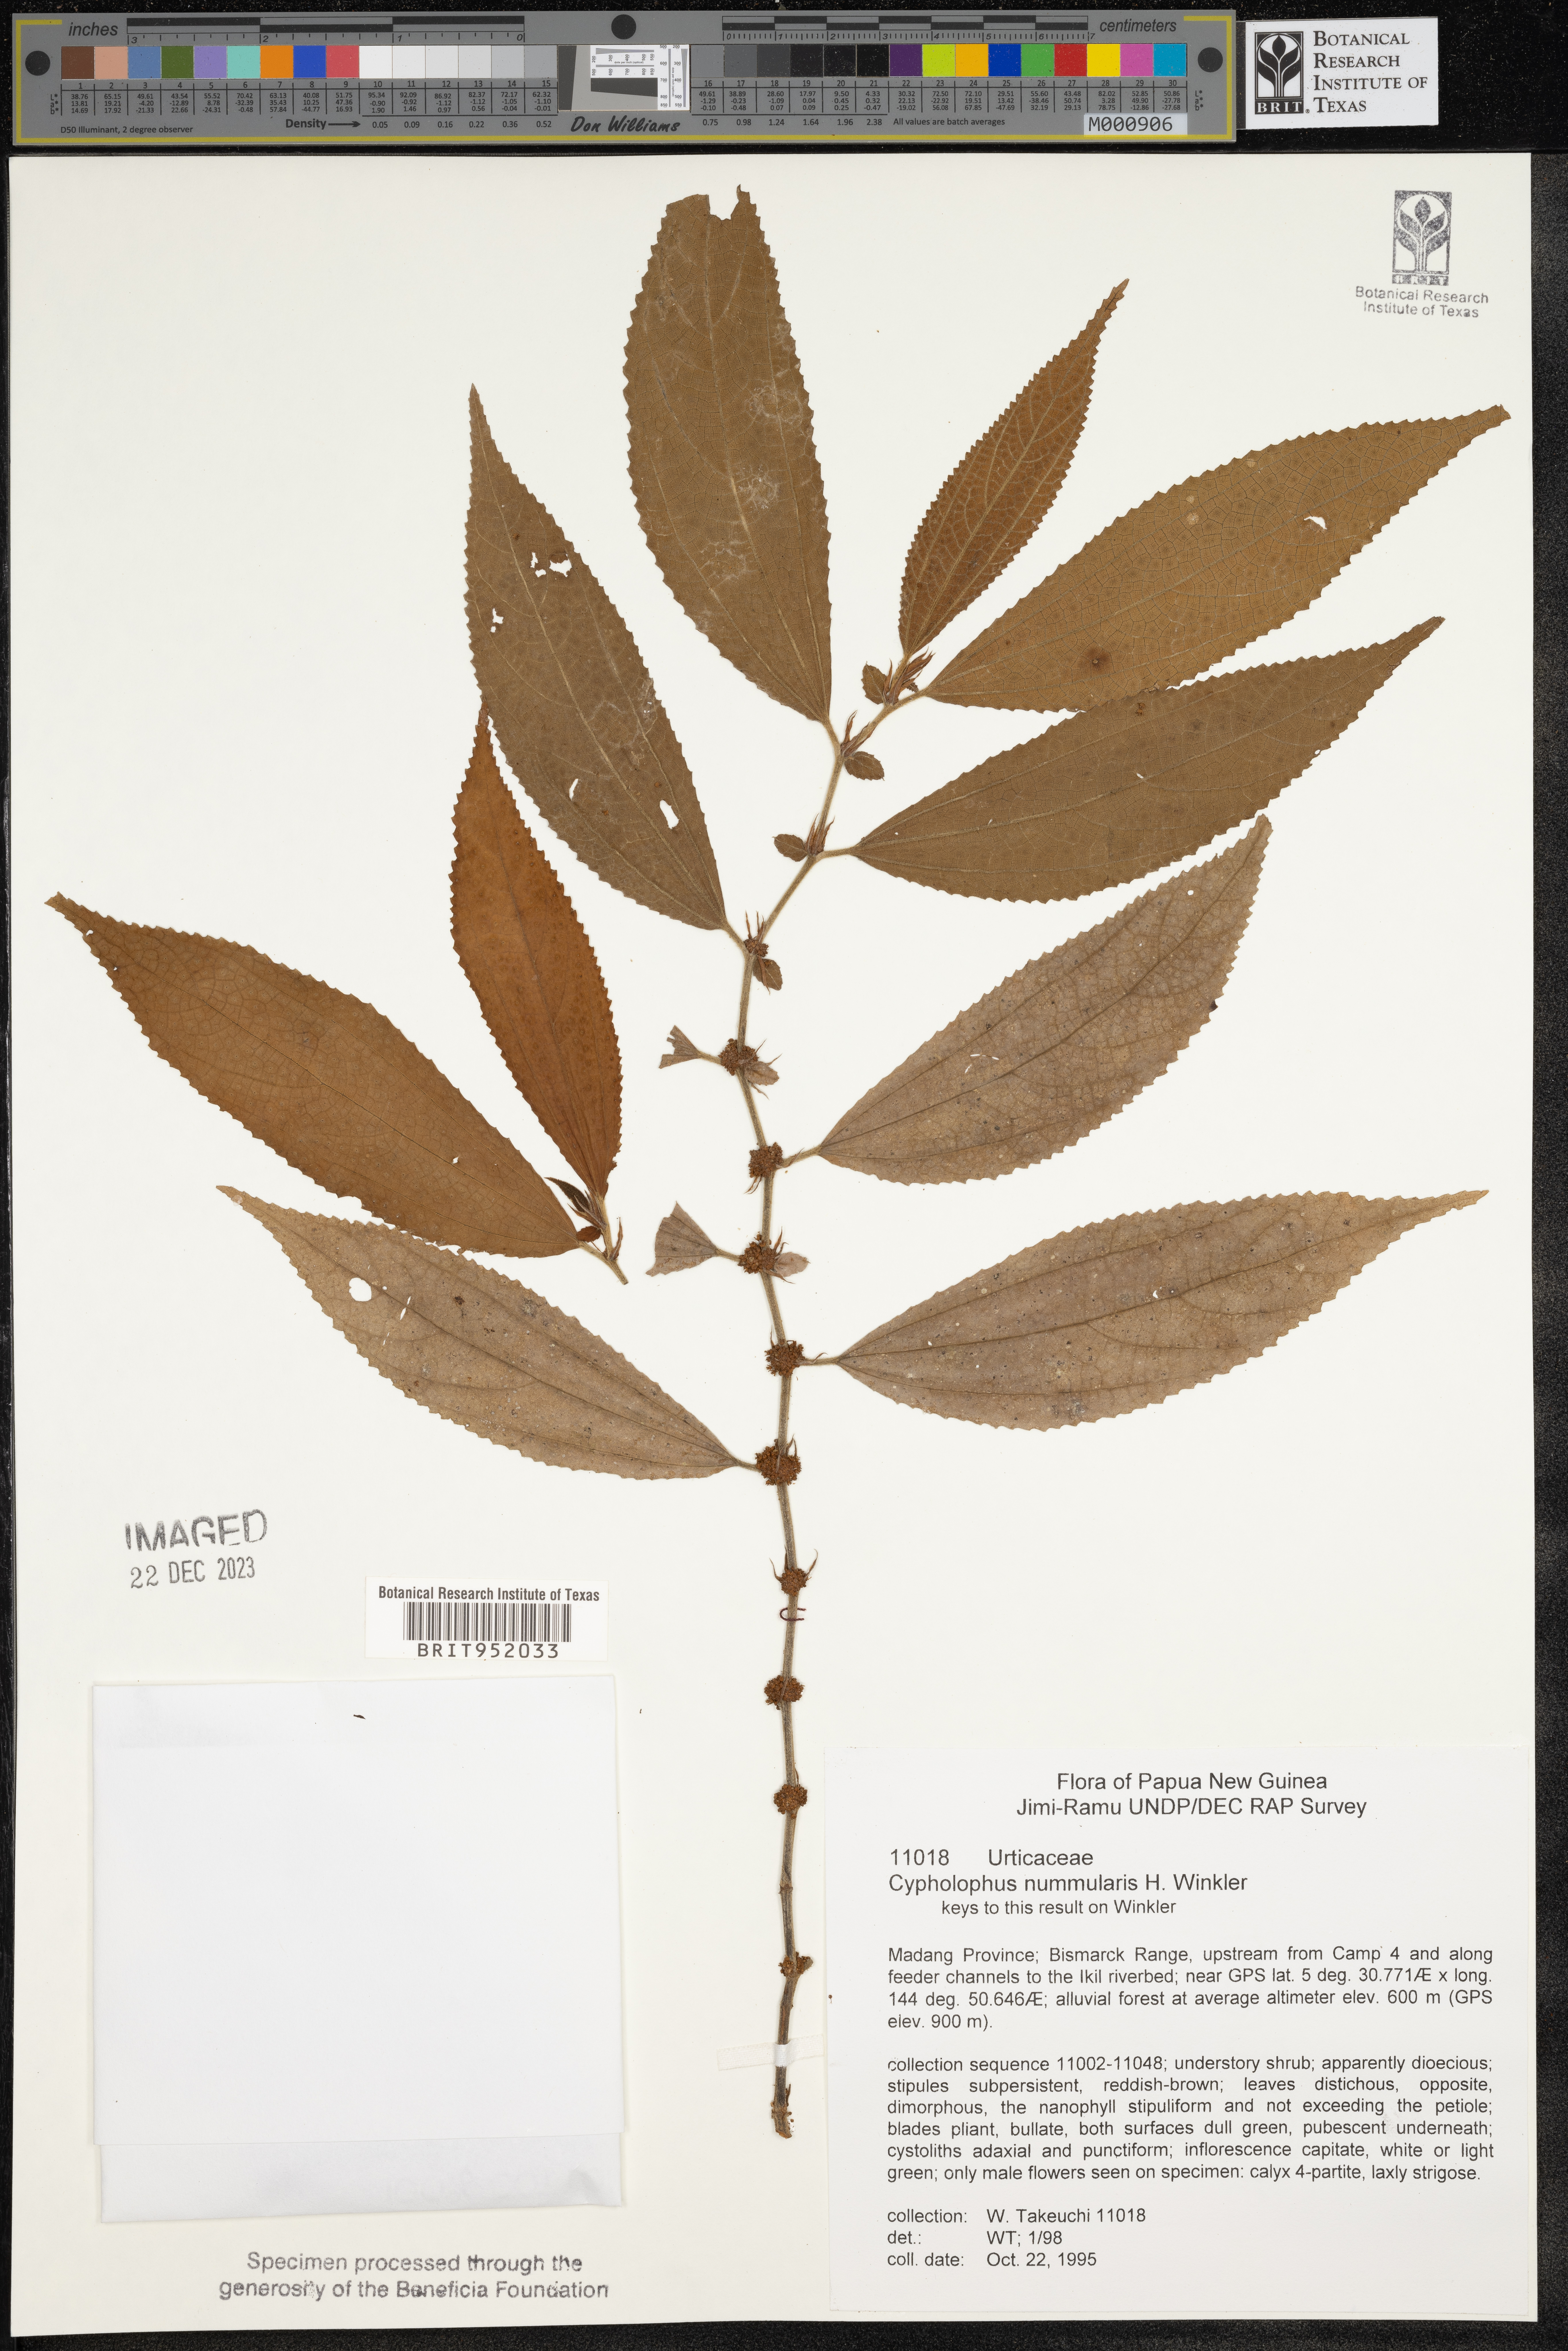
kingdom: Plantae
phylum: Tracheophyta
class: Magnoliopsida
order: Rosales
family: Urticaceae
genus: Cypholophus
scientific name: Cypholophus
